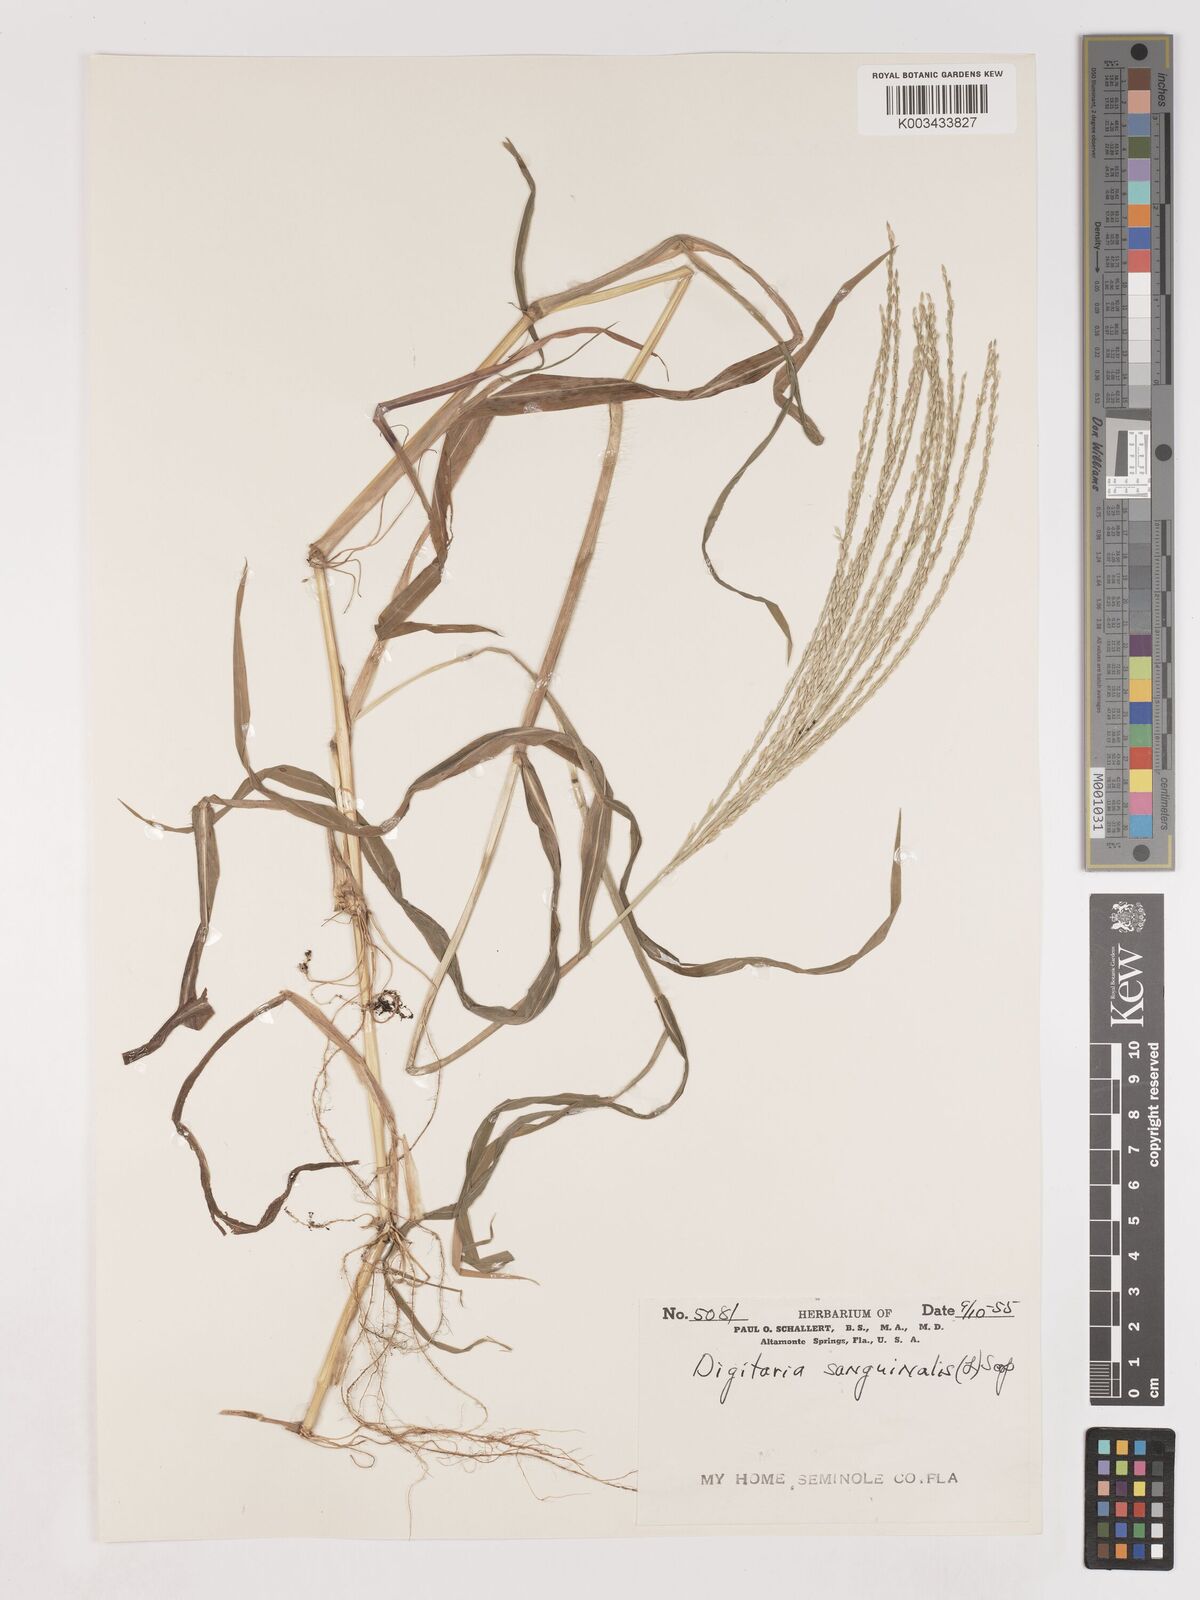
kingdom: Plantae
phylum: Tracheophyta
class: Liliopsida
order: Poales
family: Poaceae
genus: Digitaria
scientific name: Digitaria ciliaris
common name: Tropical finger-grass
